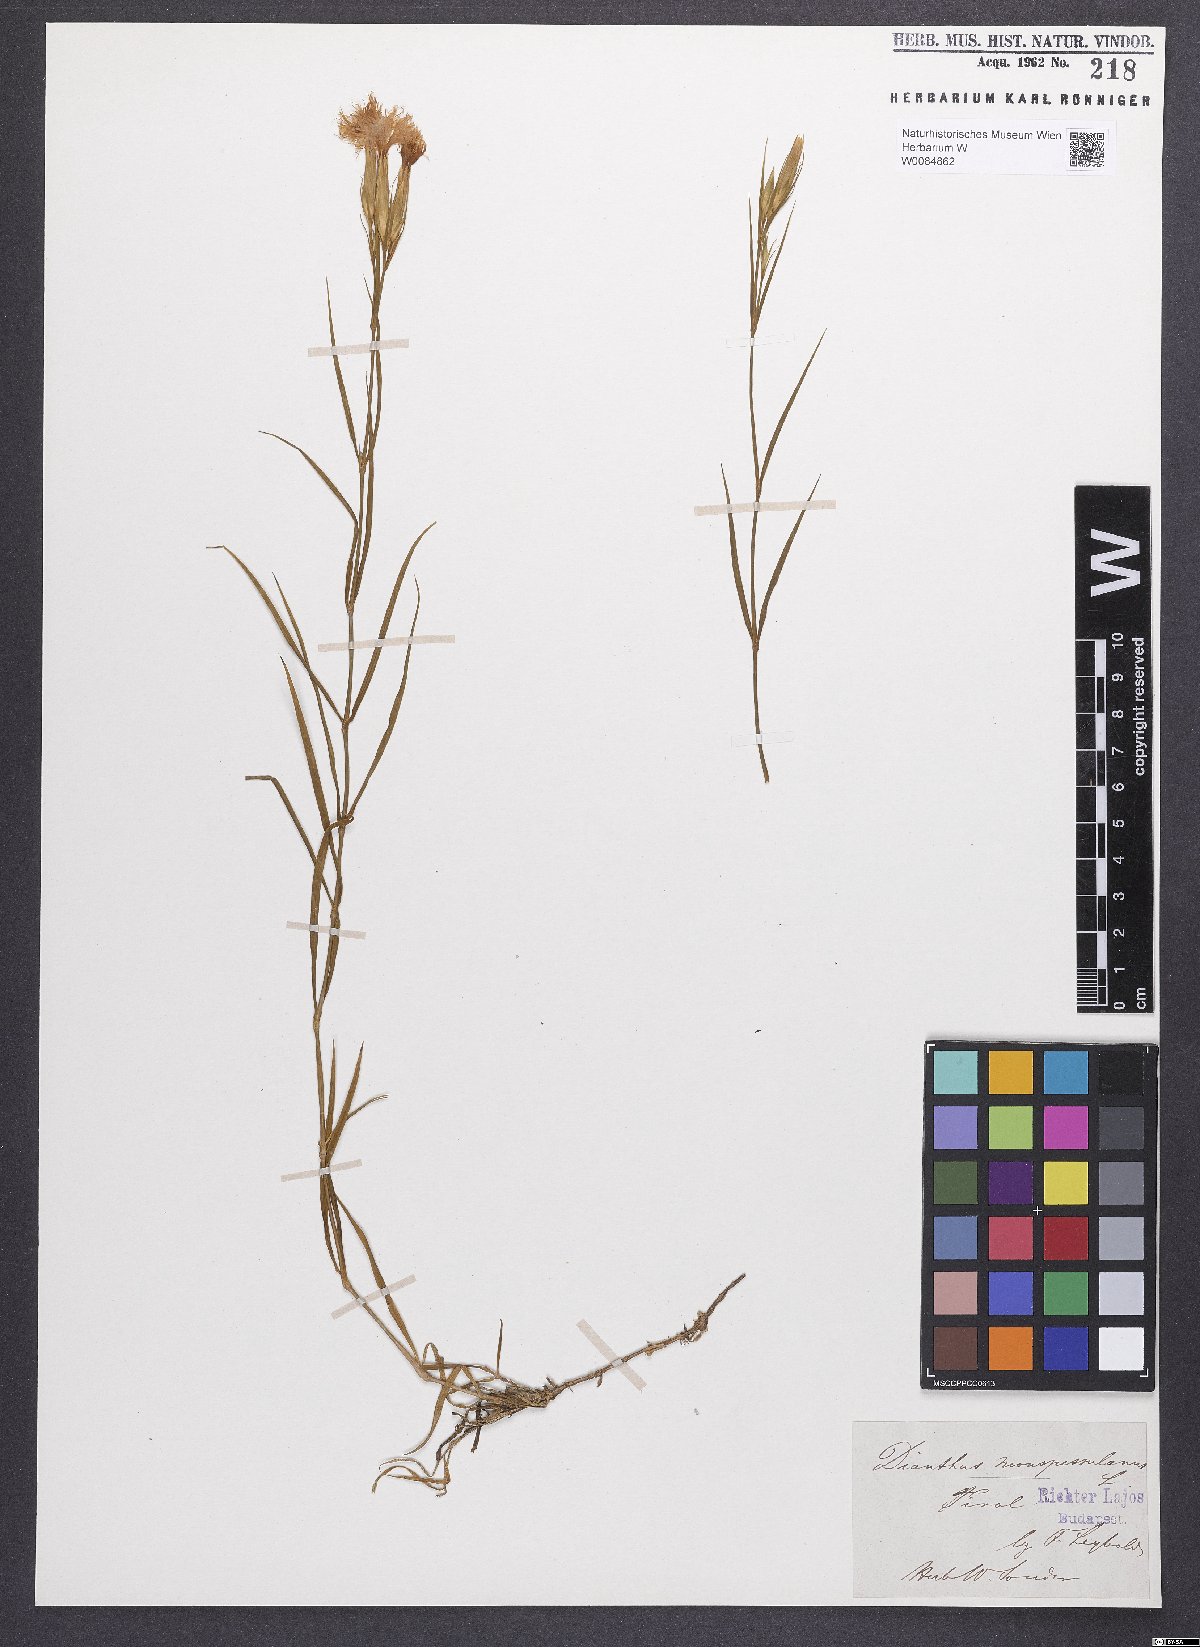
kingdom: Plantae
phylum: Tracheophyta
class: Magnoliopsida
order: Caryophyllales
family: Caryophyllaceae
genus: Dianthus
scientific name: Dianthus hyssopifolius
